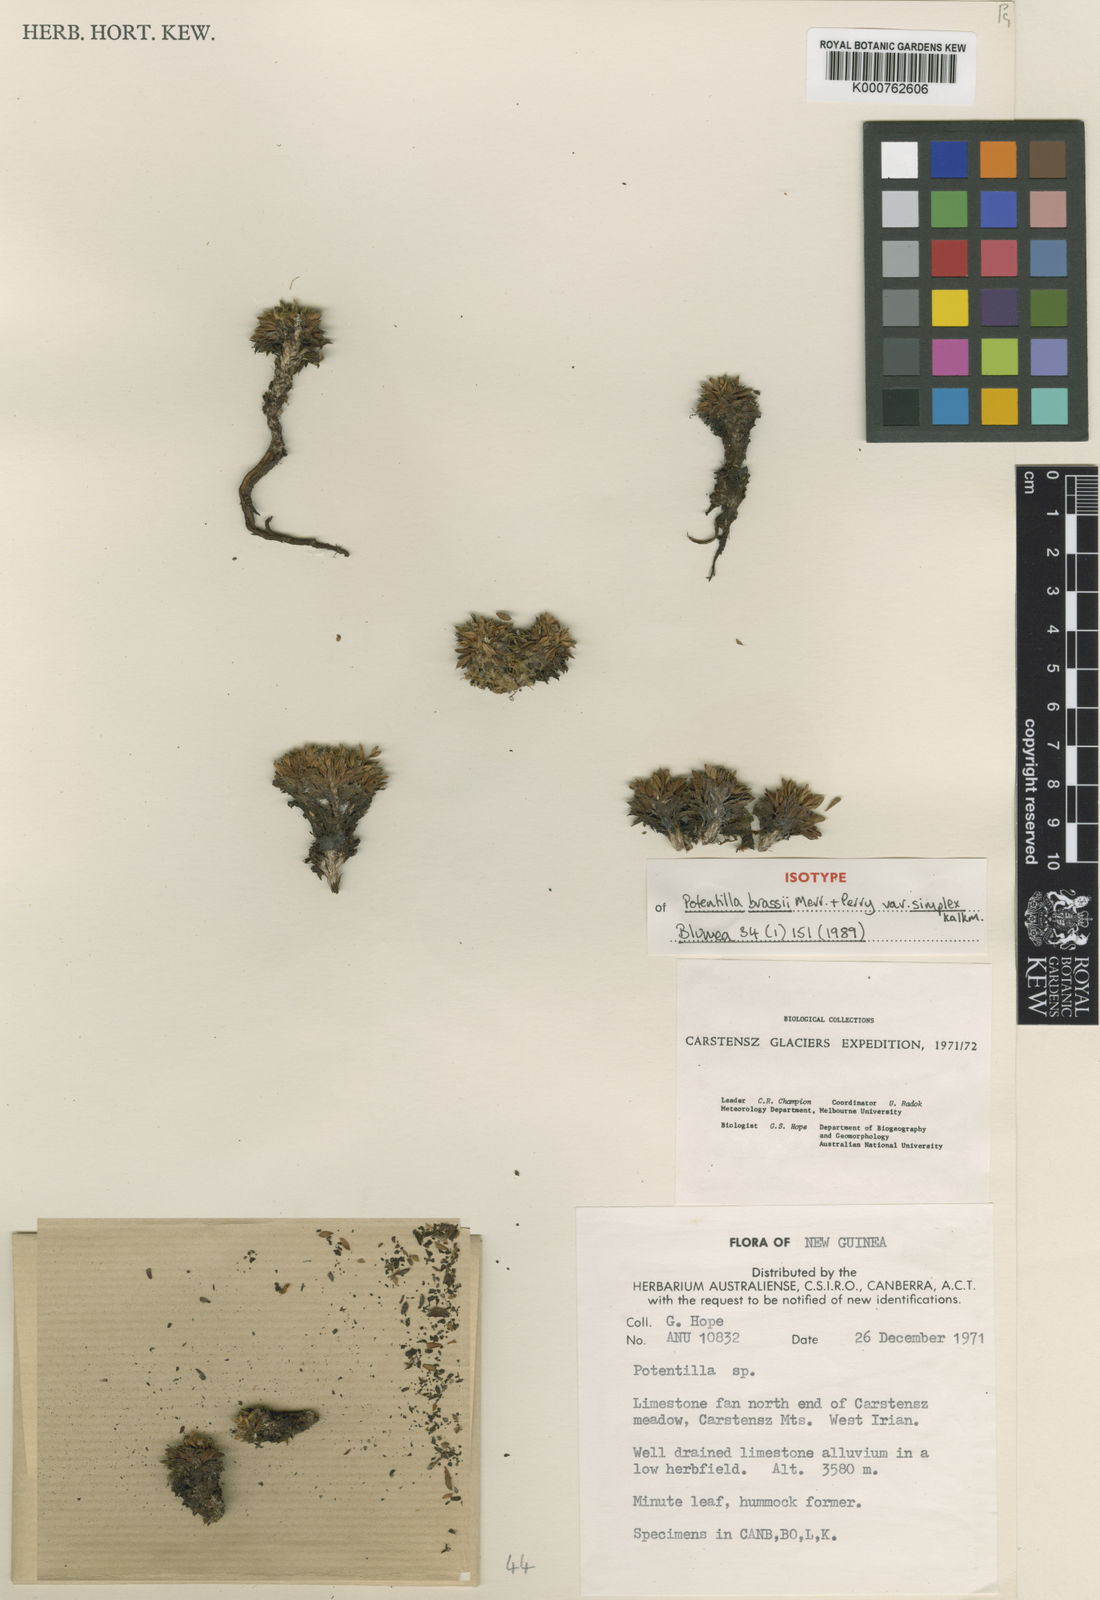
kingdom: Plantae
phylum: Tracheophyta
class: Magnoliopsida
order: Rosales
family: Rosaceae
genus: Argentina
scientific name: Argentina brassii
